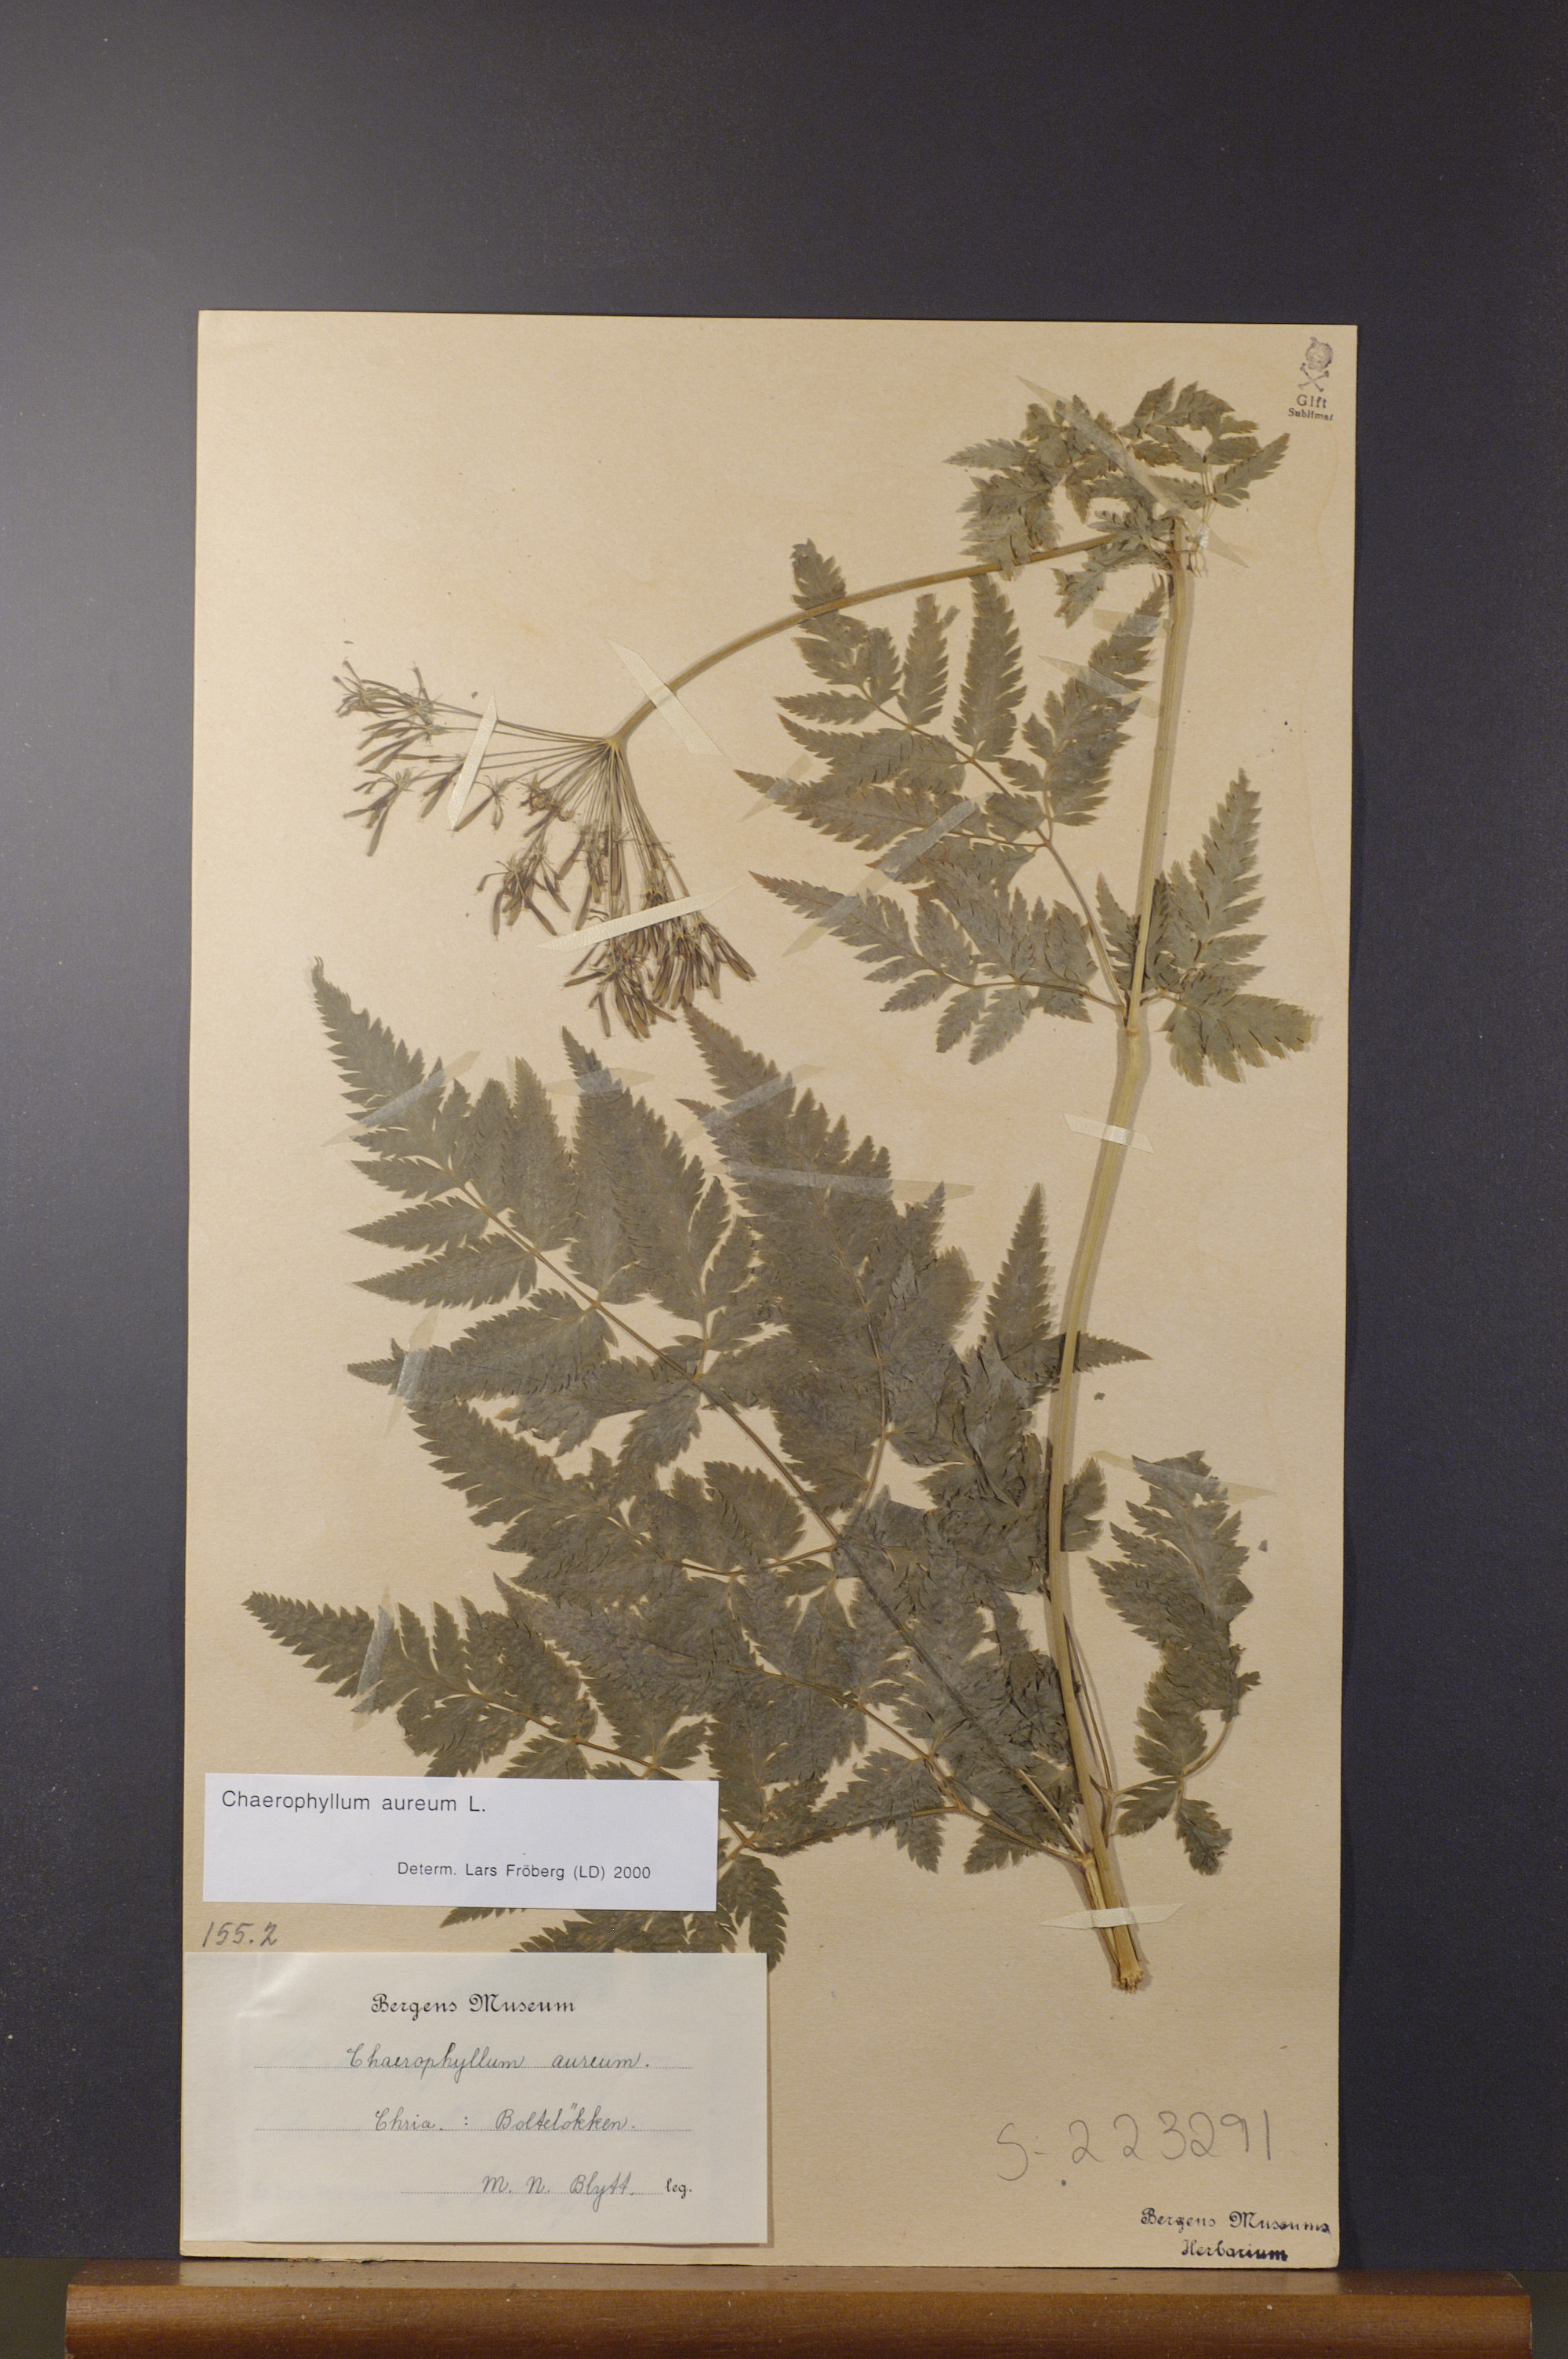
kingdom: Plantae
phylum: Tracheophyta
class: Magnoliopsida
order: Apiales
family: Apiaceae
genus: Chaerophyllum
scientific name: Chaerophyllum aureum
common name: Golden chervil
